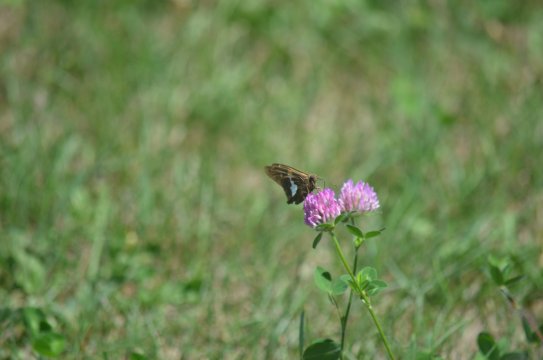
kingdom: Animalia
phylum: Arthropoda
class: Insecta
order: Lepidoptera
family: Hesperiidae
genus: Epargyreus
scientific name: Epargyreus clarus
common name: Silver-spotted Skipper
